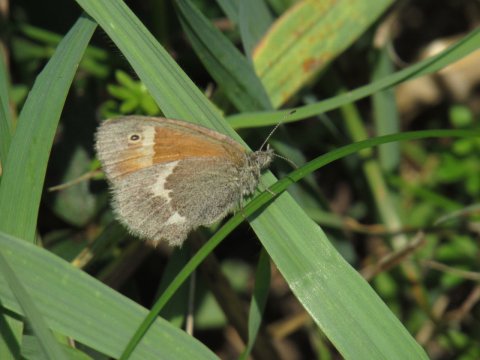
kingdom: Animalia
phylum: Arthropoda
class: Insecta
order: Lepidoptera
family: Nymphalidae
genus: Coenonympha
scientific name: Coenonympha tullia
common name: Large Heath
